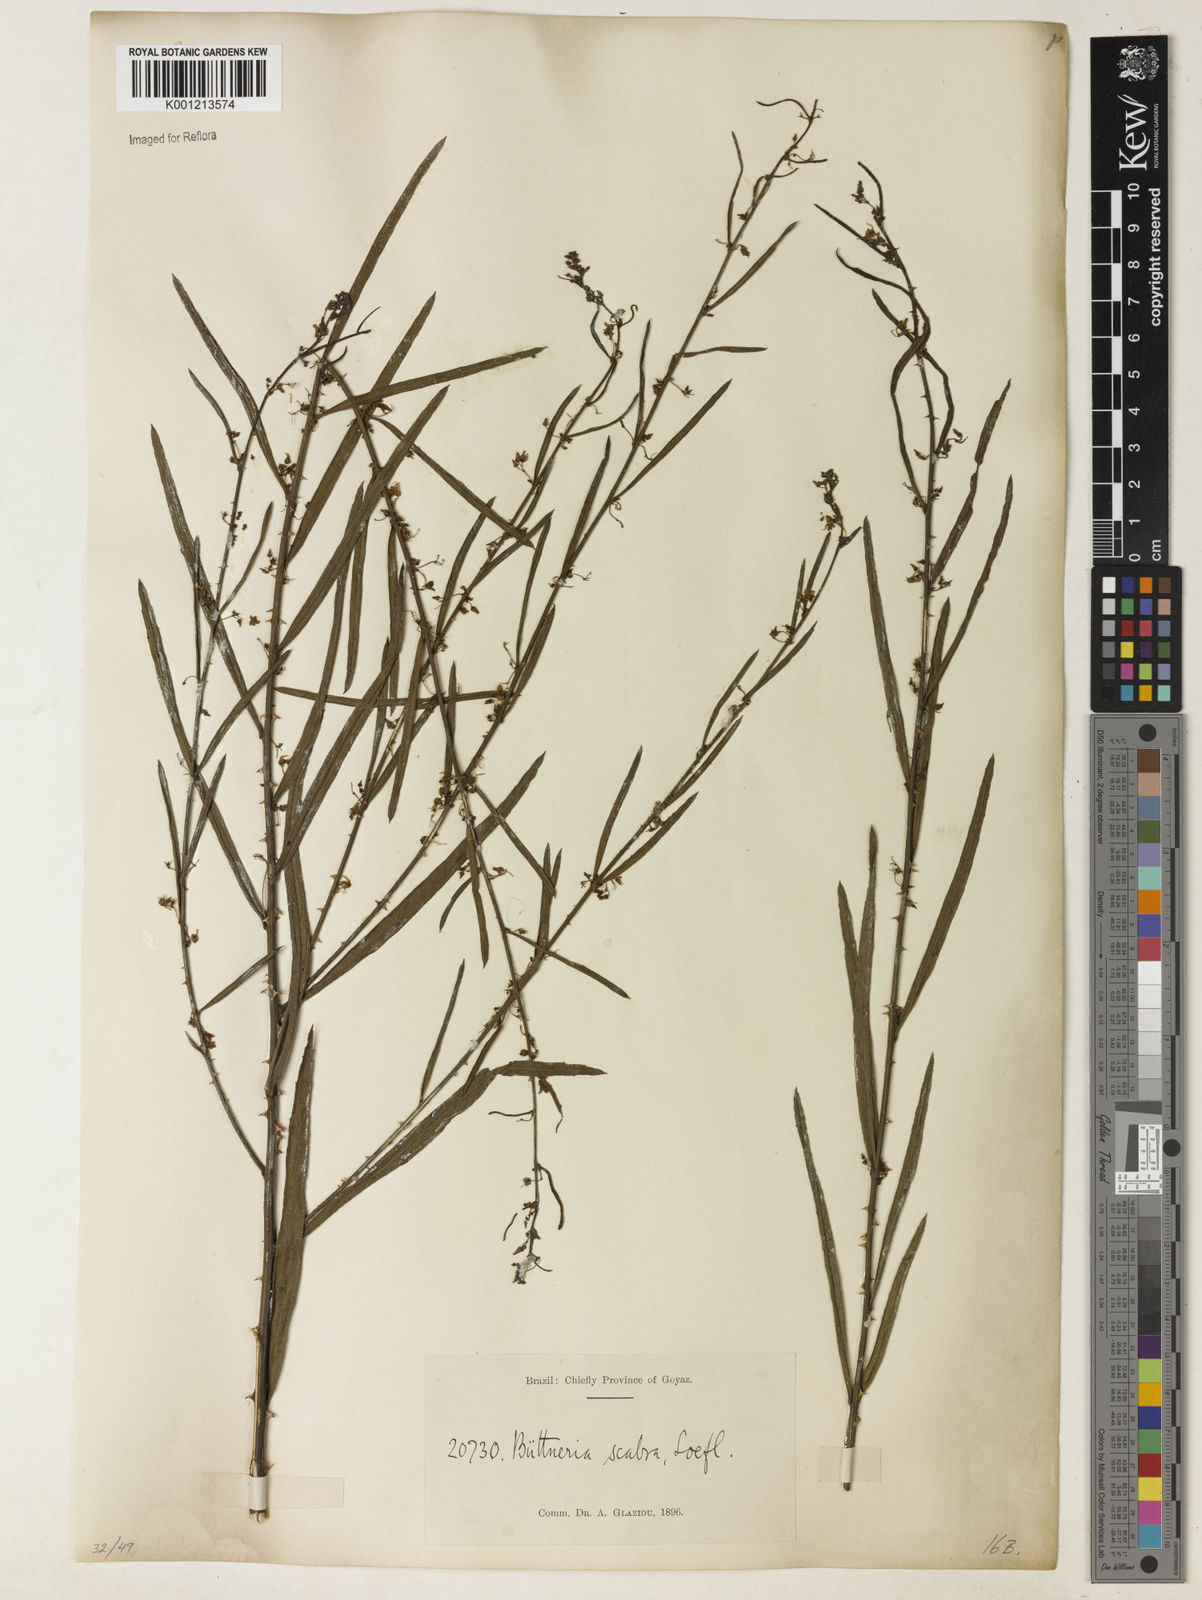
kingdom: Plantae
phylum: Tracheophyta
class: Magnoliopsida
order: Malvales
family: Malvaceae
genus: Byttneria
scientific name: Byttneria
